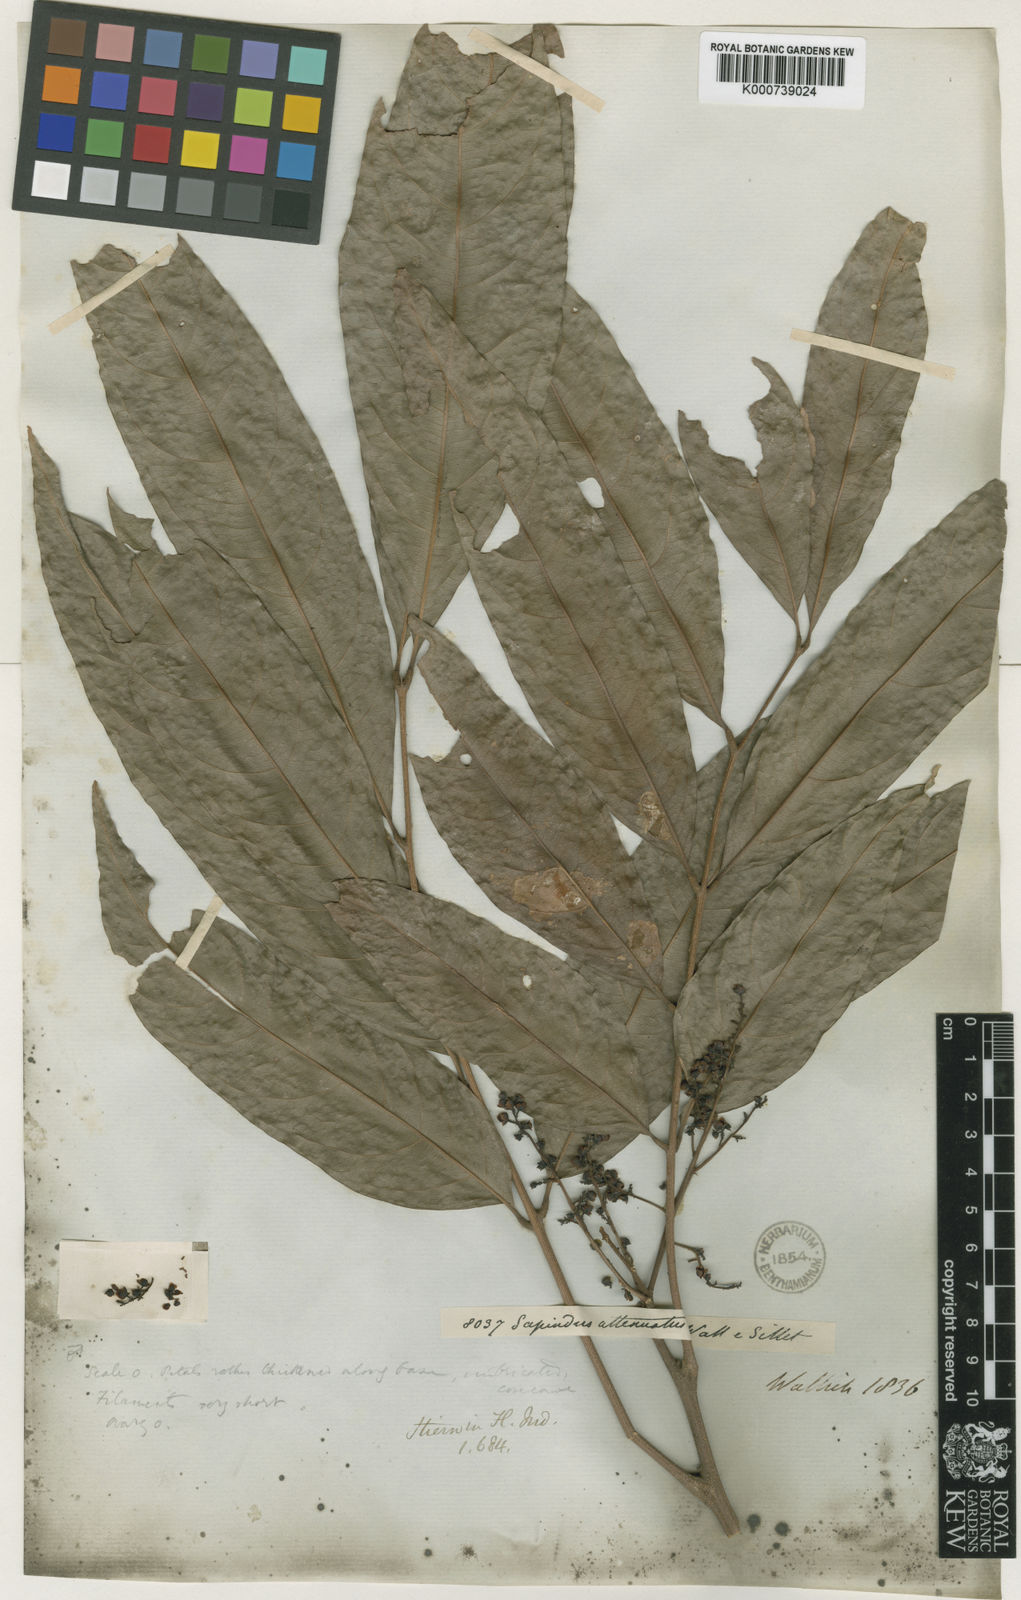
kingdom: Plantae
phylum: Tracheophyta
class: Magnoliopsida
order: Sapindales
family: Sapindaceae
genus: Lepisanthes
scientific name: Lepisanthes senegalensis
